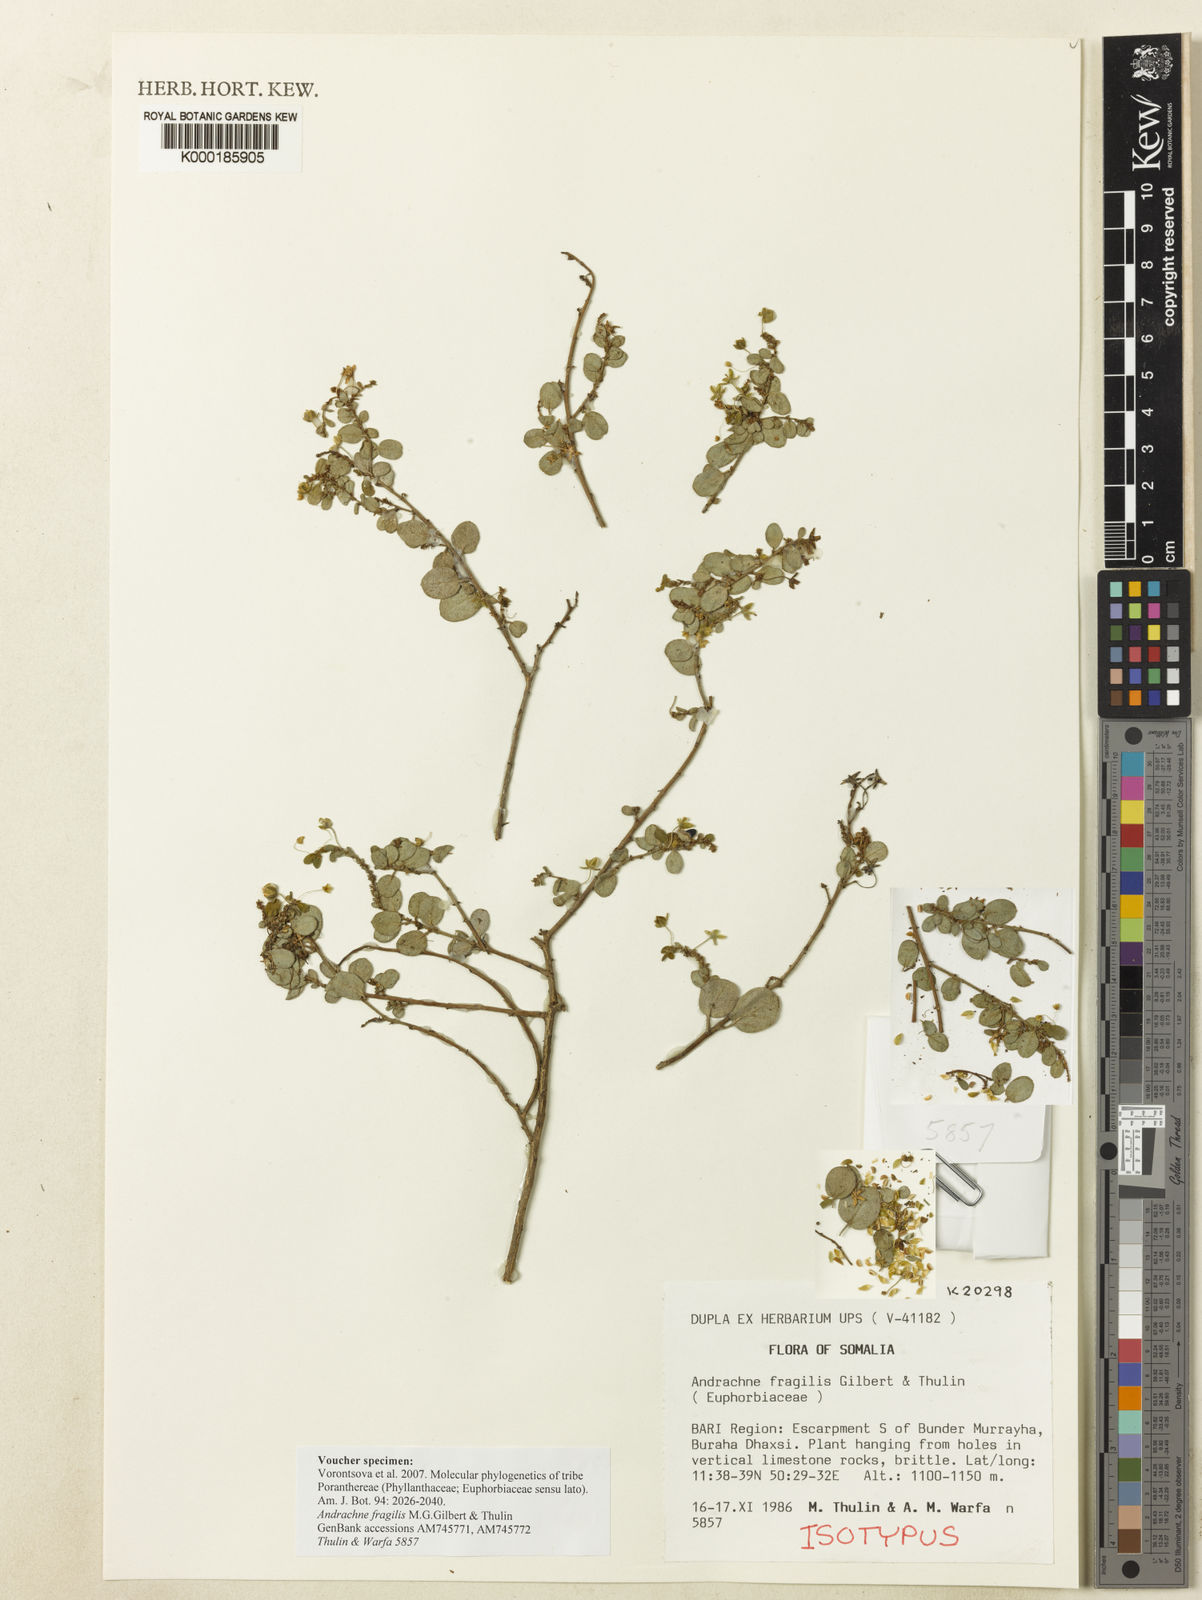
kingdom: Plantae
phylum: Tracheophyta
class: Magnoliopsida
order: Malpighiales
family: Phyllanthaceae
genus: Andrachne
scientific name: Andrachne fragilis
